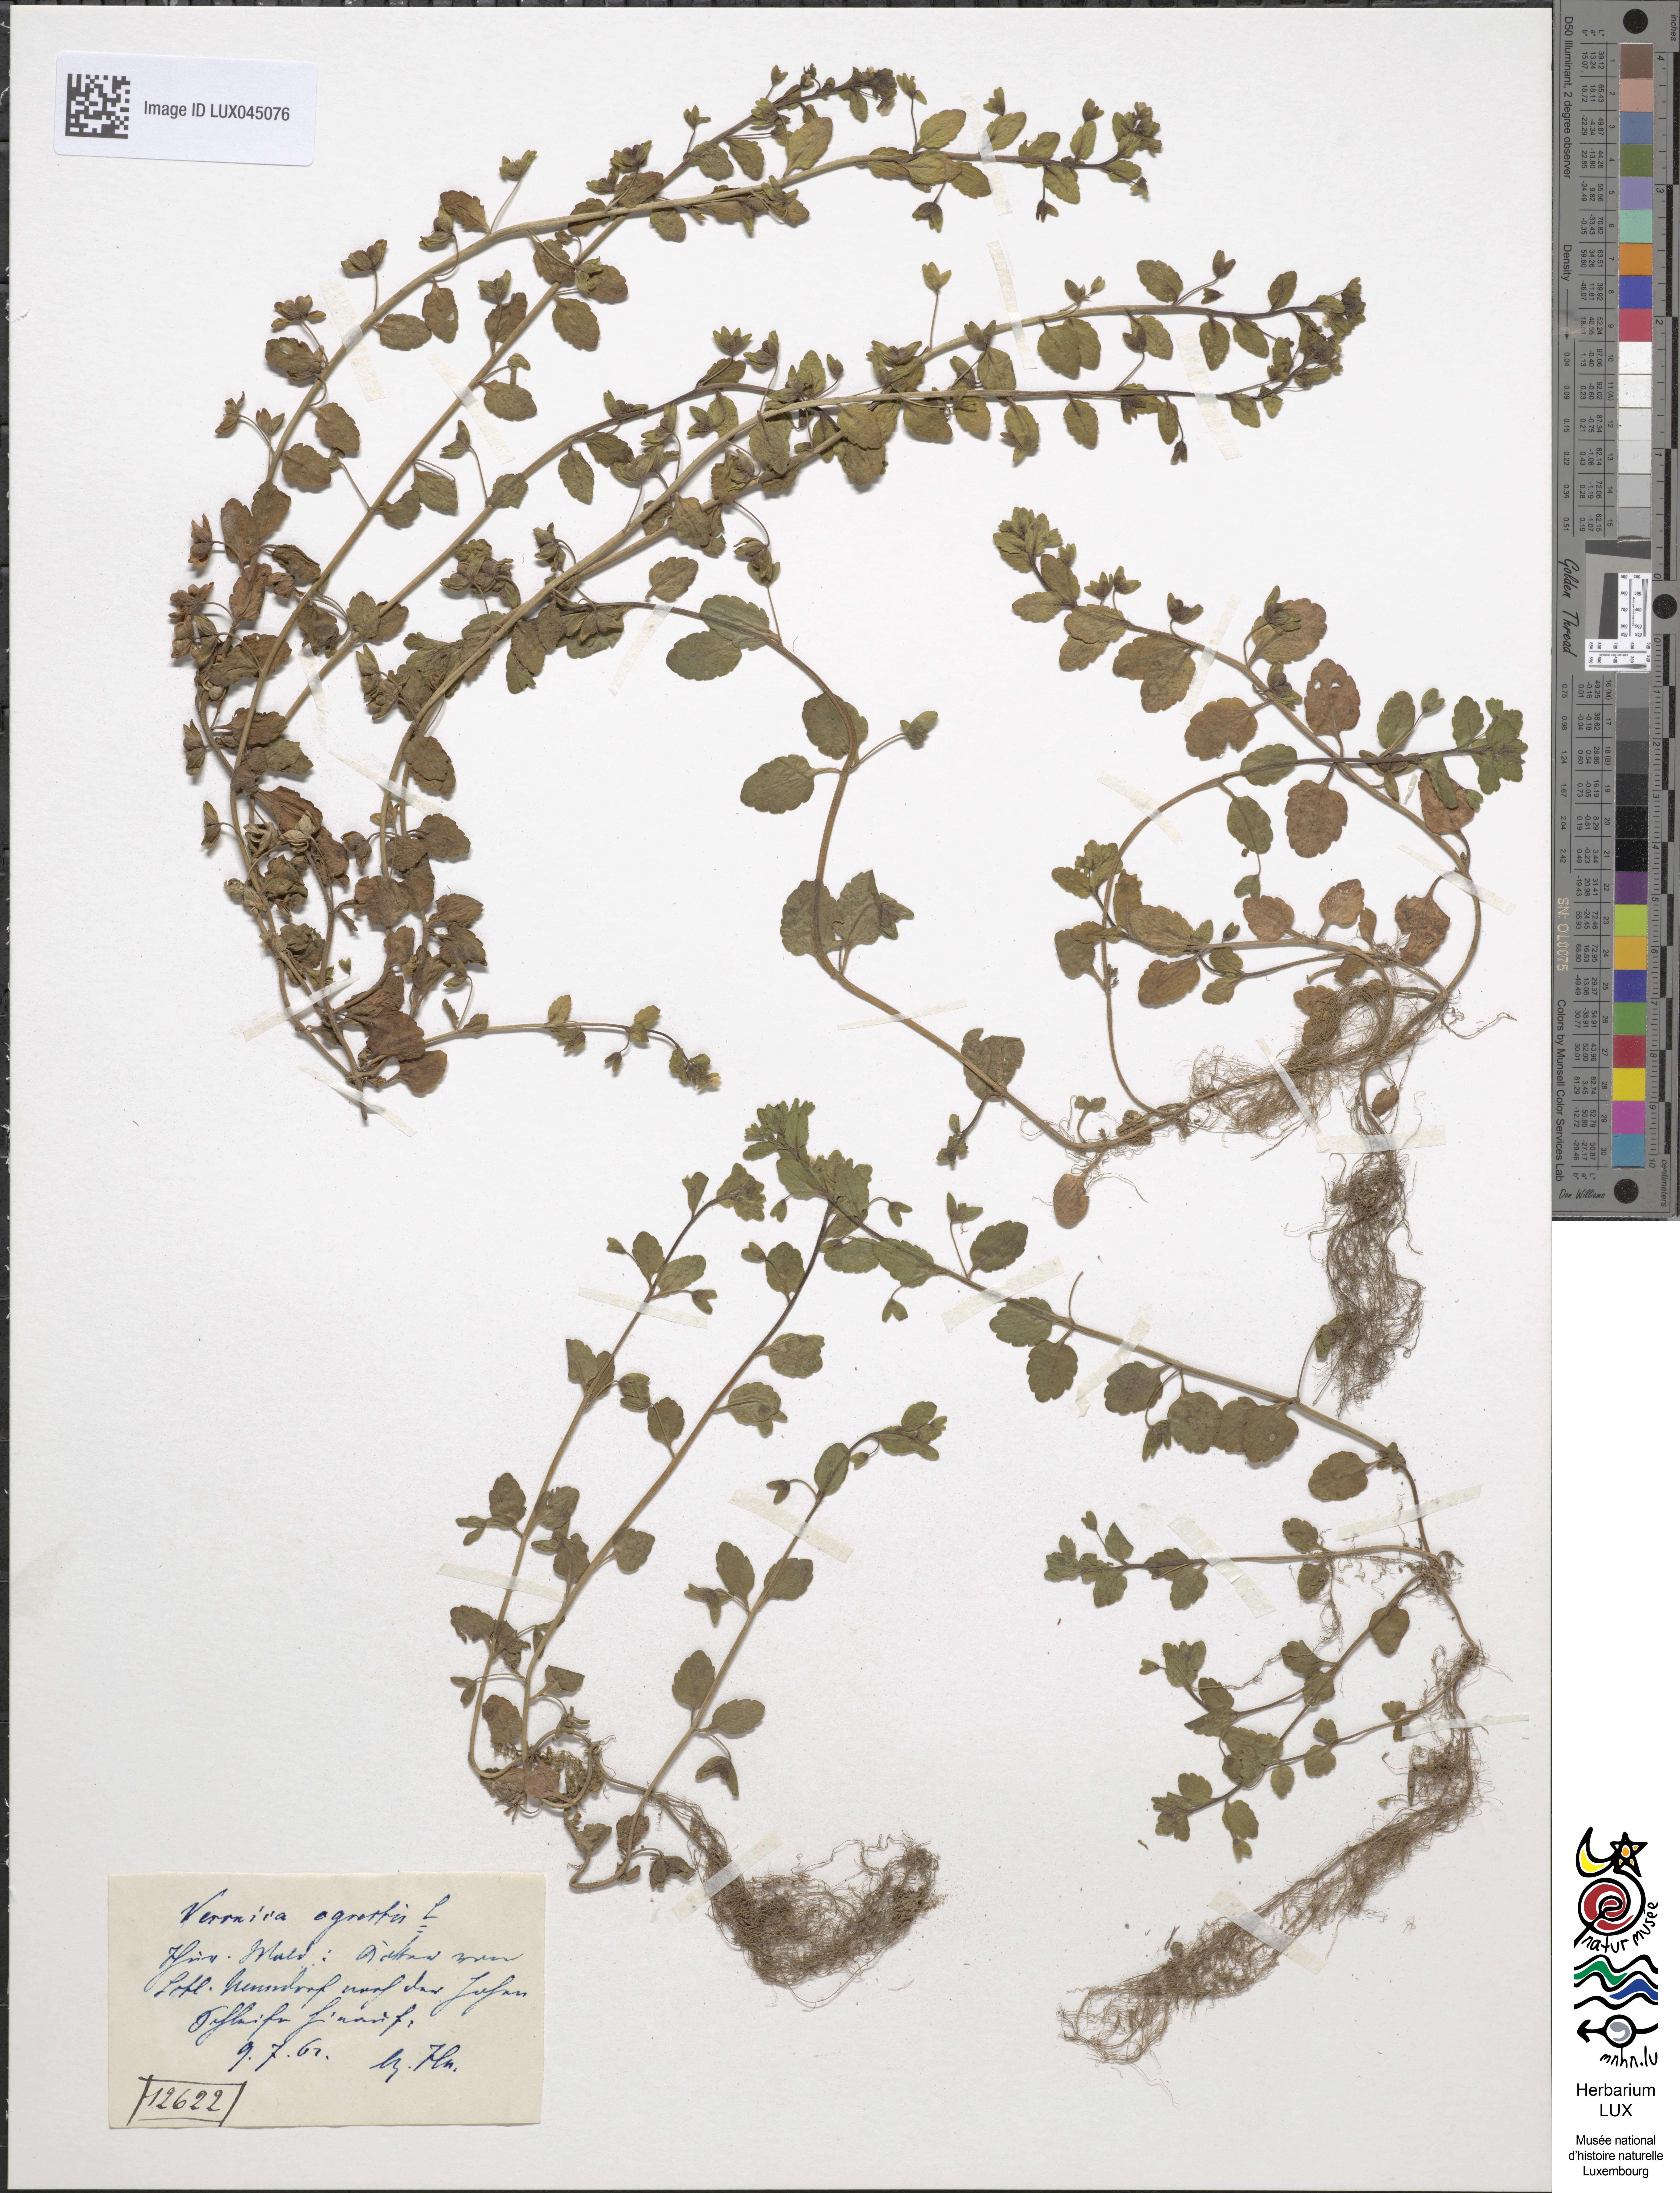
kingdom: Plantae
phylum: Tracheophyta
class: Magnoliopsida
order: Lamiales
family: Plantaginaceae
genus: Veronica
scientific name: Veronica agrestis
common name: Green field-speedwell
